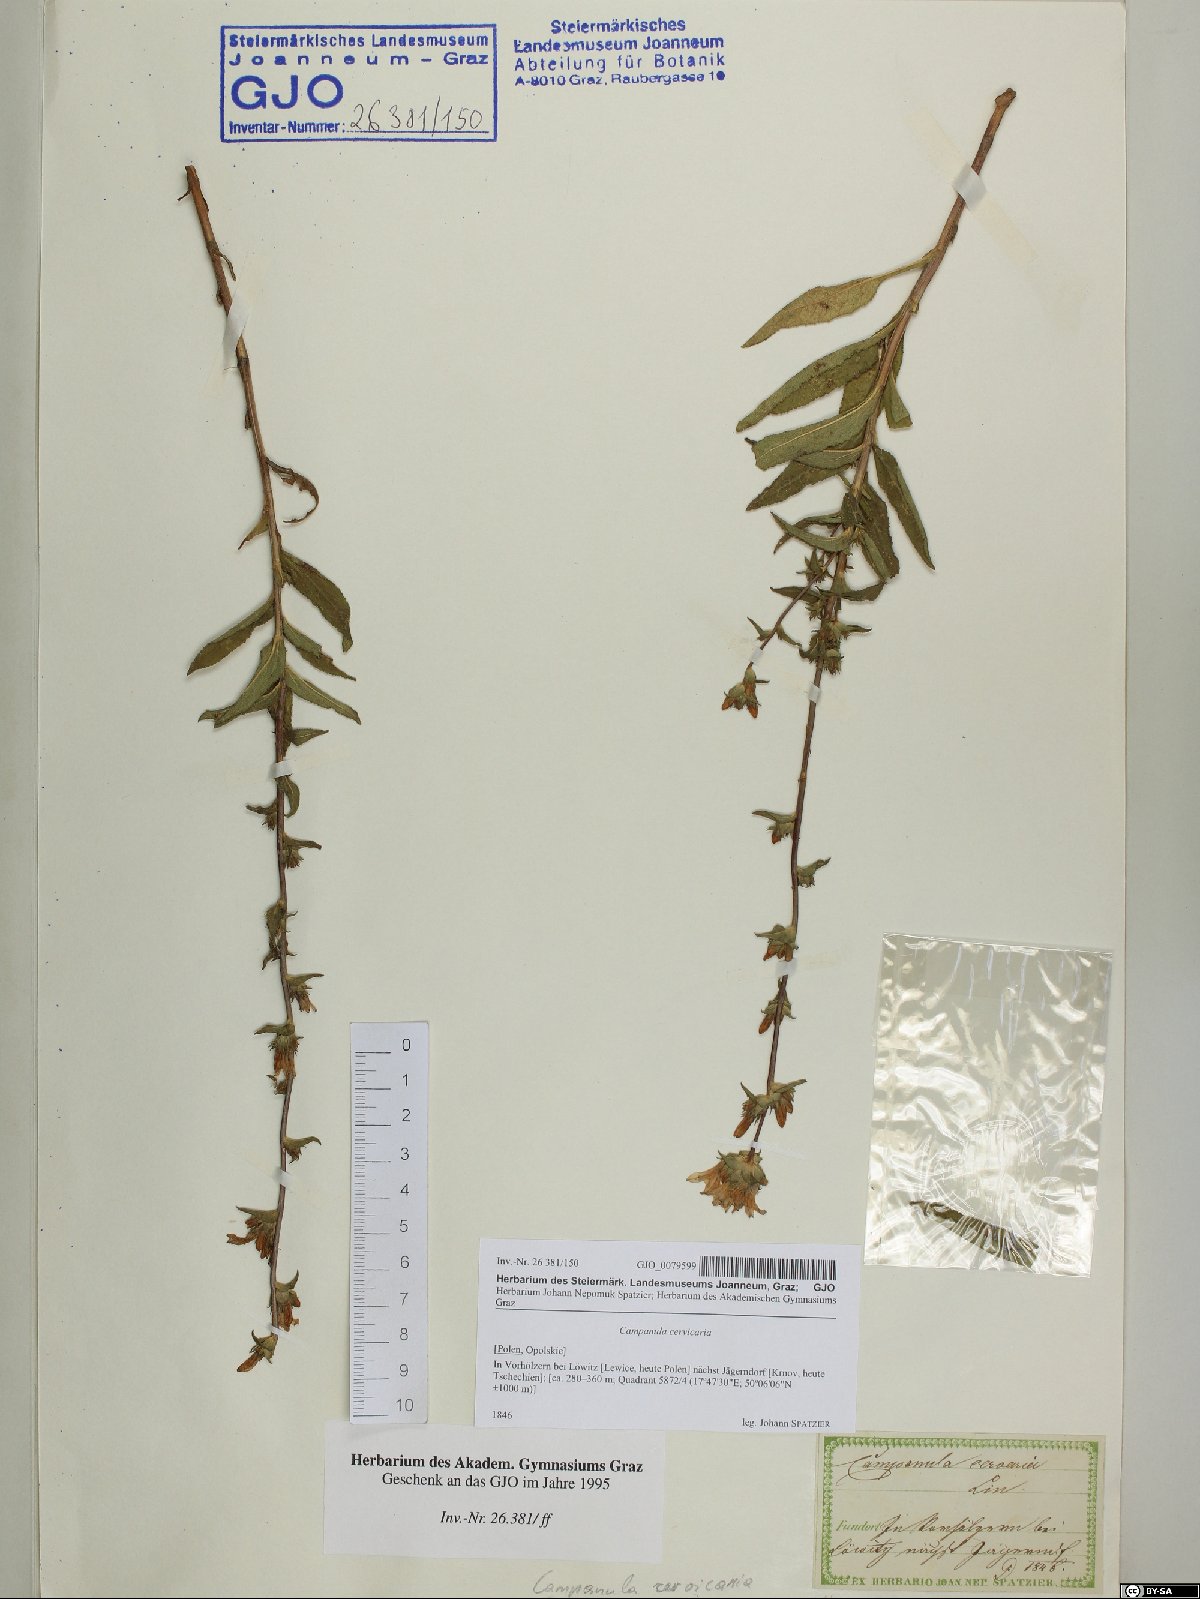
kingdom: Plantae
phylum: Tracheophyta
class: Magnoliopsida
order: Asterales
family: Campanulaceae
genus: Campanula
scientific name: Campanula cervicaria
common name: Bristly bellflower
